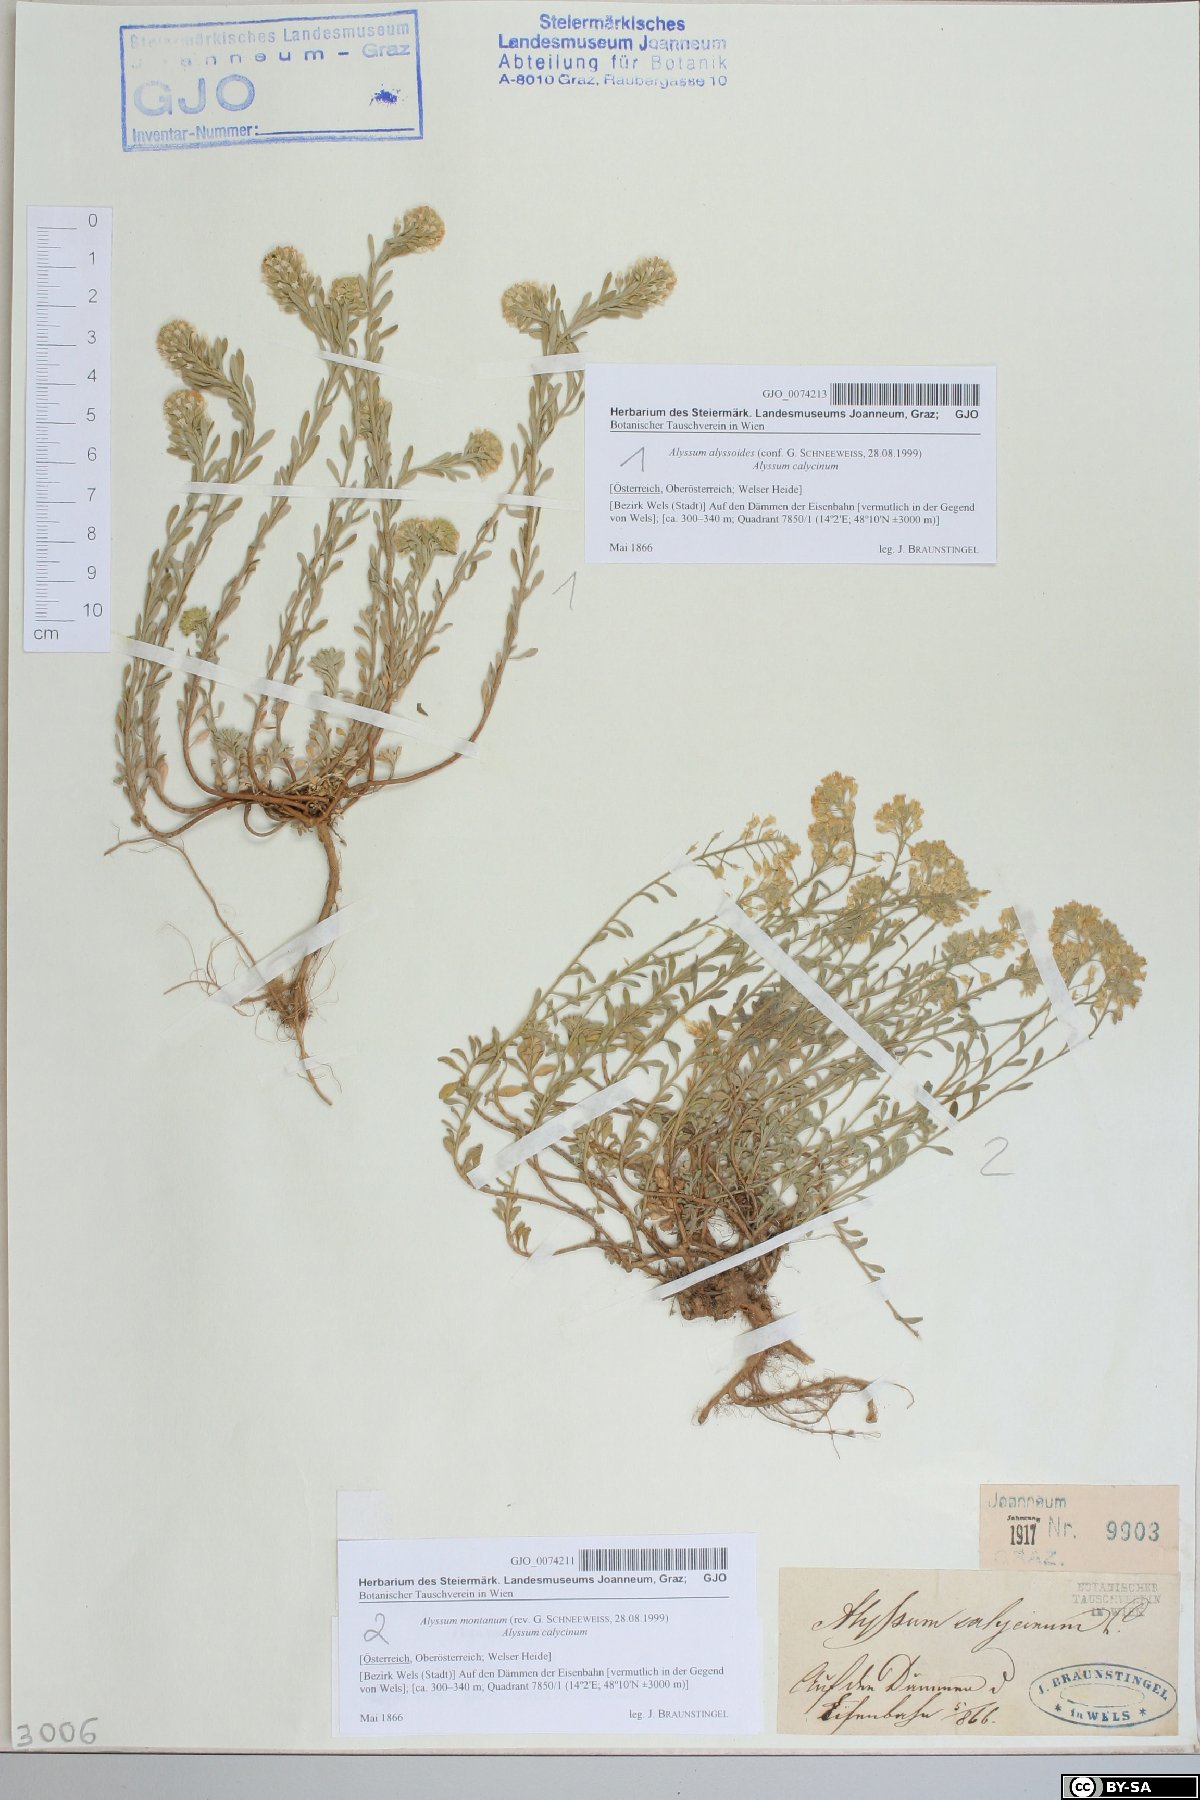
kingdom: Plantae
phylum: Tracheophyta
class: Magnoliopsida
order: Brassicales
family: Brassicaceae
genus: Alyssum
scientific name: Alyssum montanum
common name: Mountain alison
